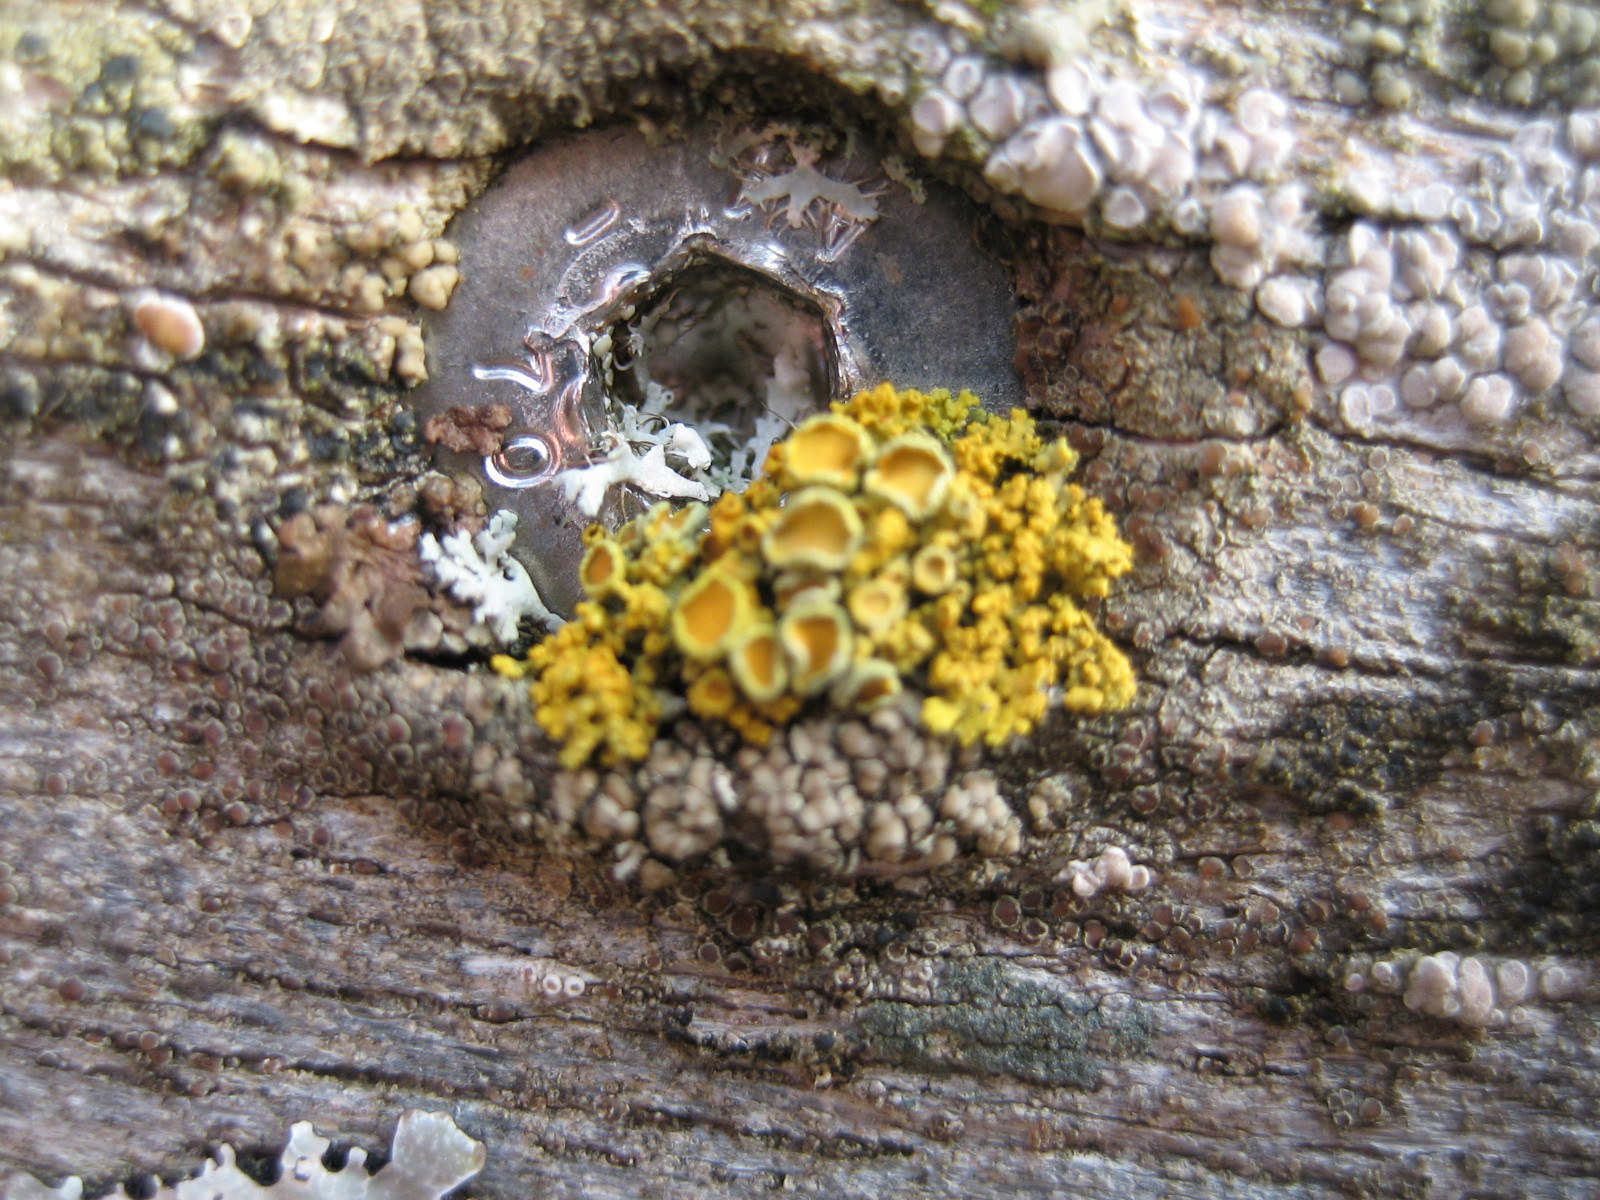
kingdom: Fungi
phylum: Ascomycota
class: Lecanoromycetes
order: Teloschistales
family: Teloschistaceae
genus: Polycauliona
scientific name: Polycauliona polycarpa
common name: mangefrugtet orangelav
